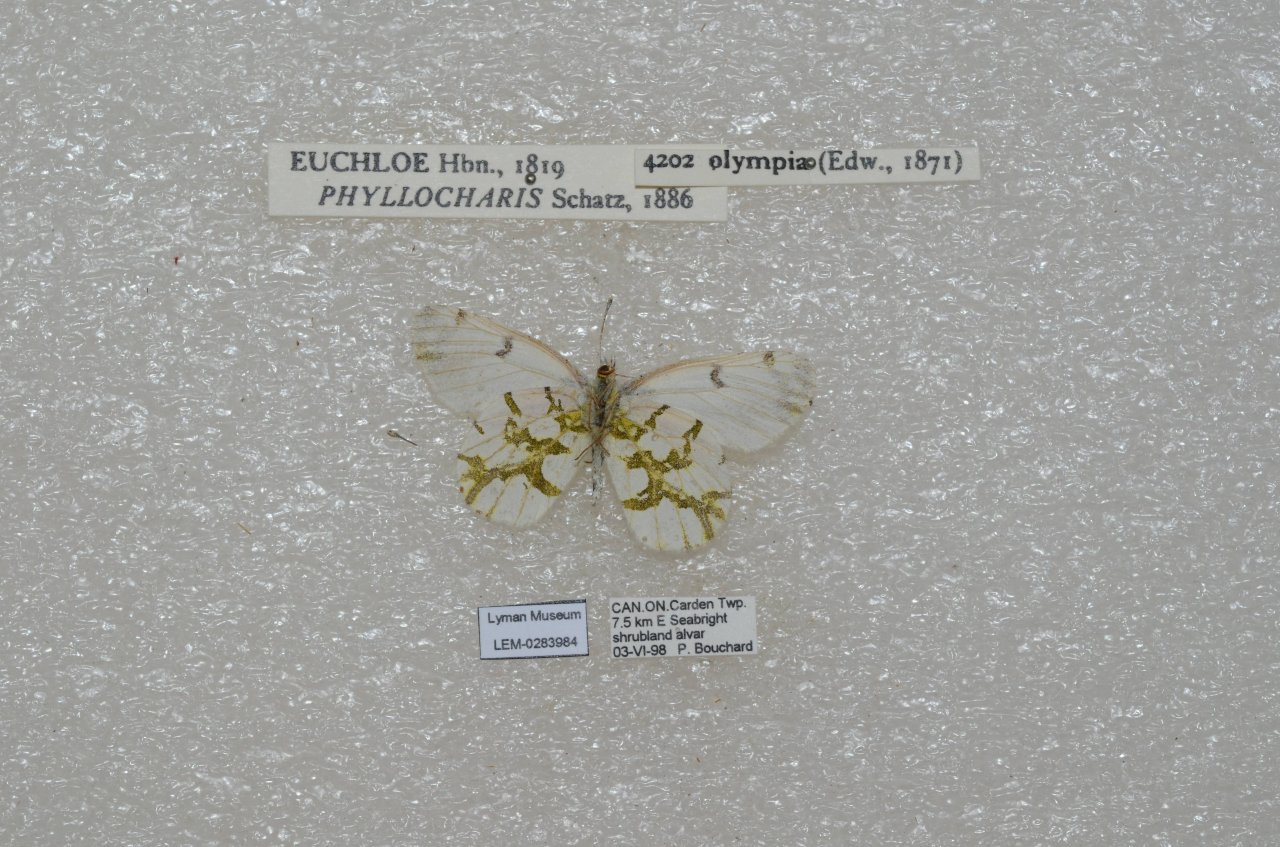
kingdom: Animalia
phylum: Arthropoda
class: Insecta
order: Lepidoptera
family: Pieridae
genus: Euchloe
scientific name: Euchloe olympia
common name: Olympia Marble
